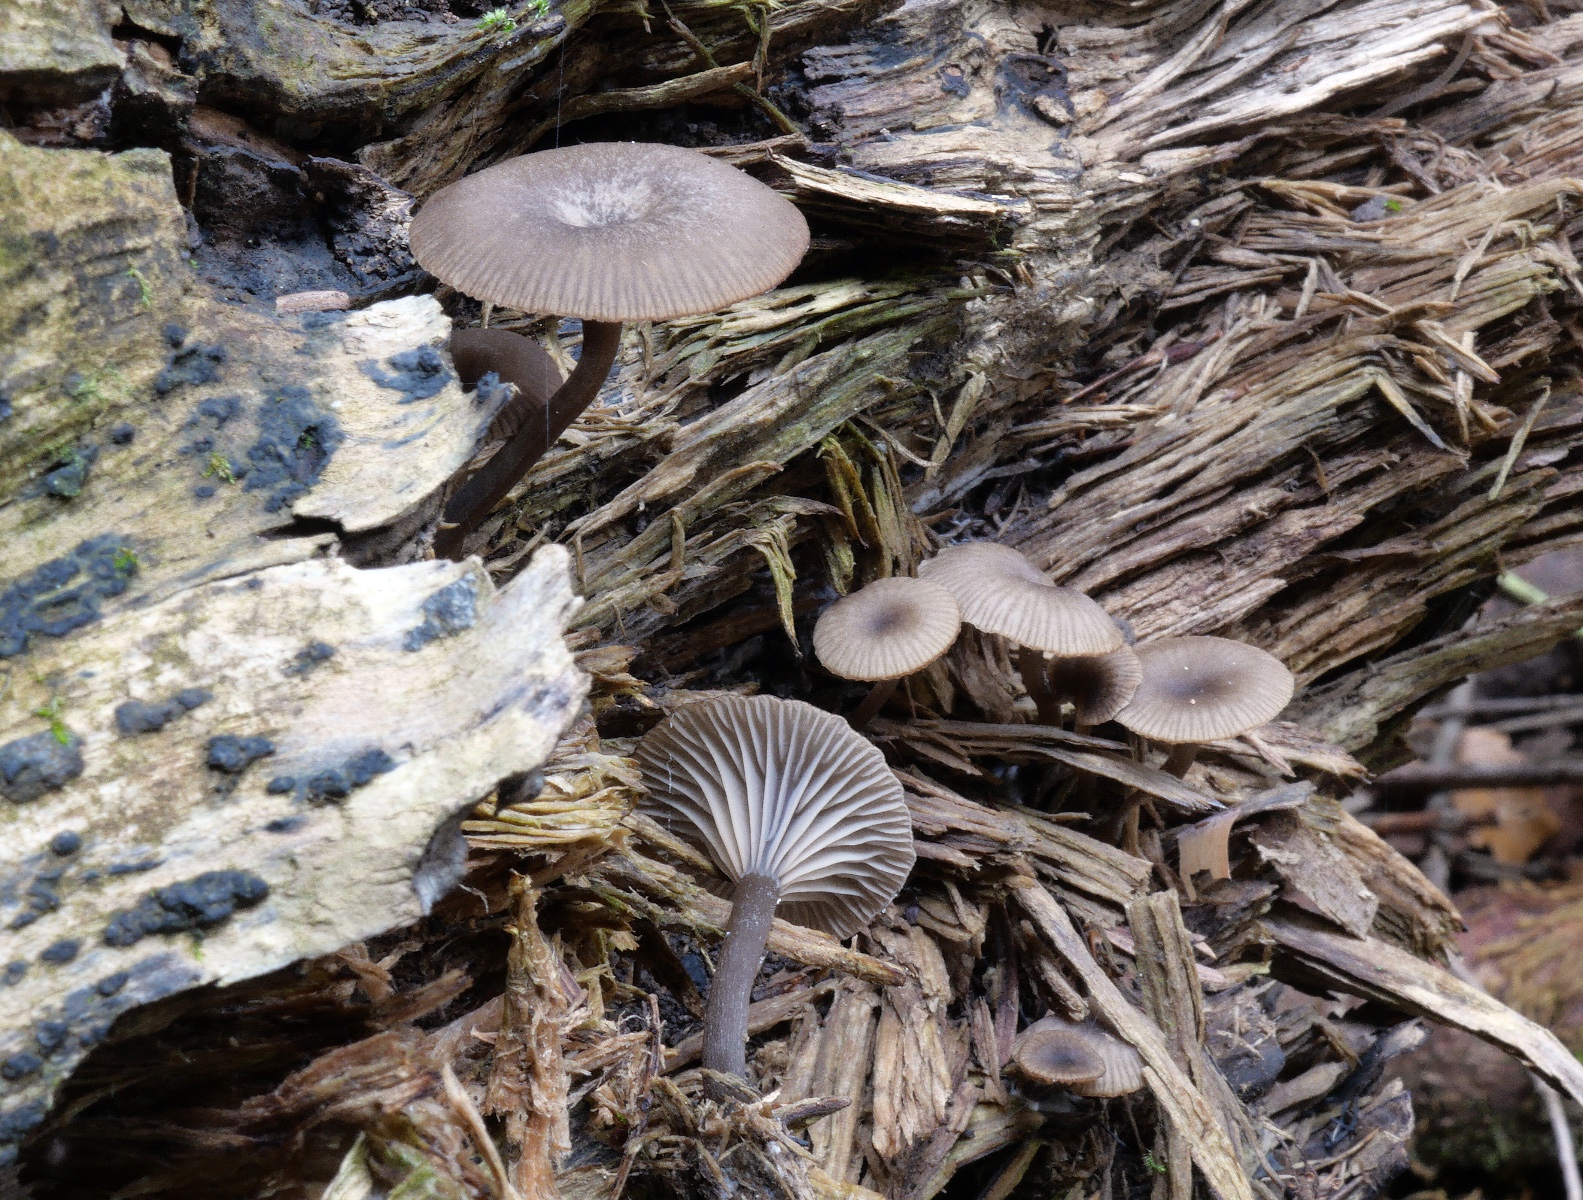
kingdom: Fungi
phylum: Basidiomycota
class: Agaricomycetes
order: Agaricales
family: Hygrophoraceae
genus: Arrhenia
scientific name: Arrhenia epichysium
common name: ved-fontænehat
